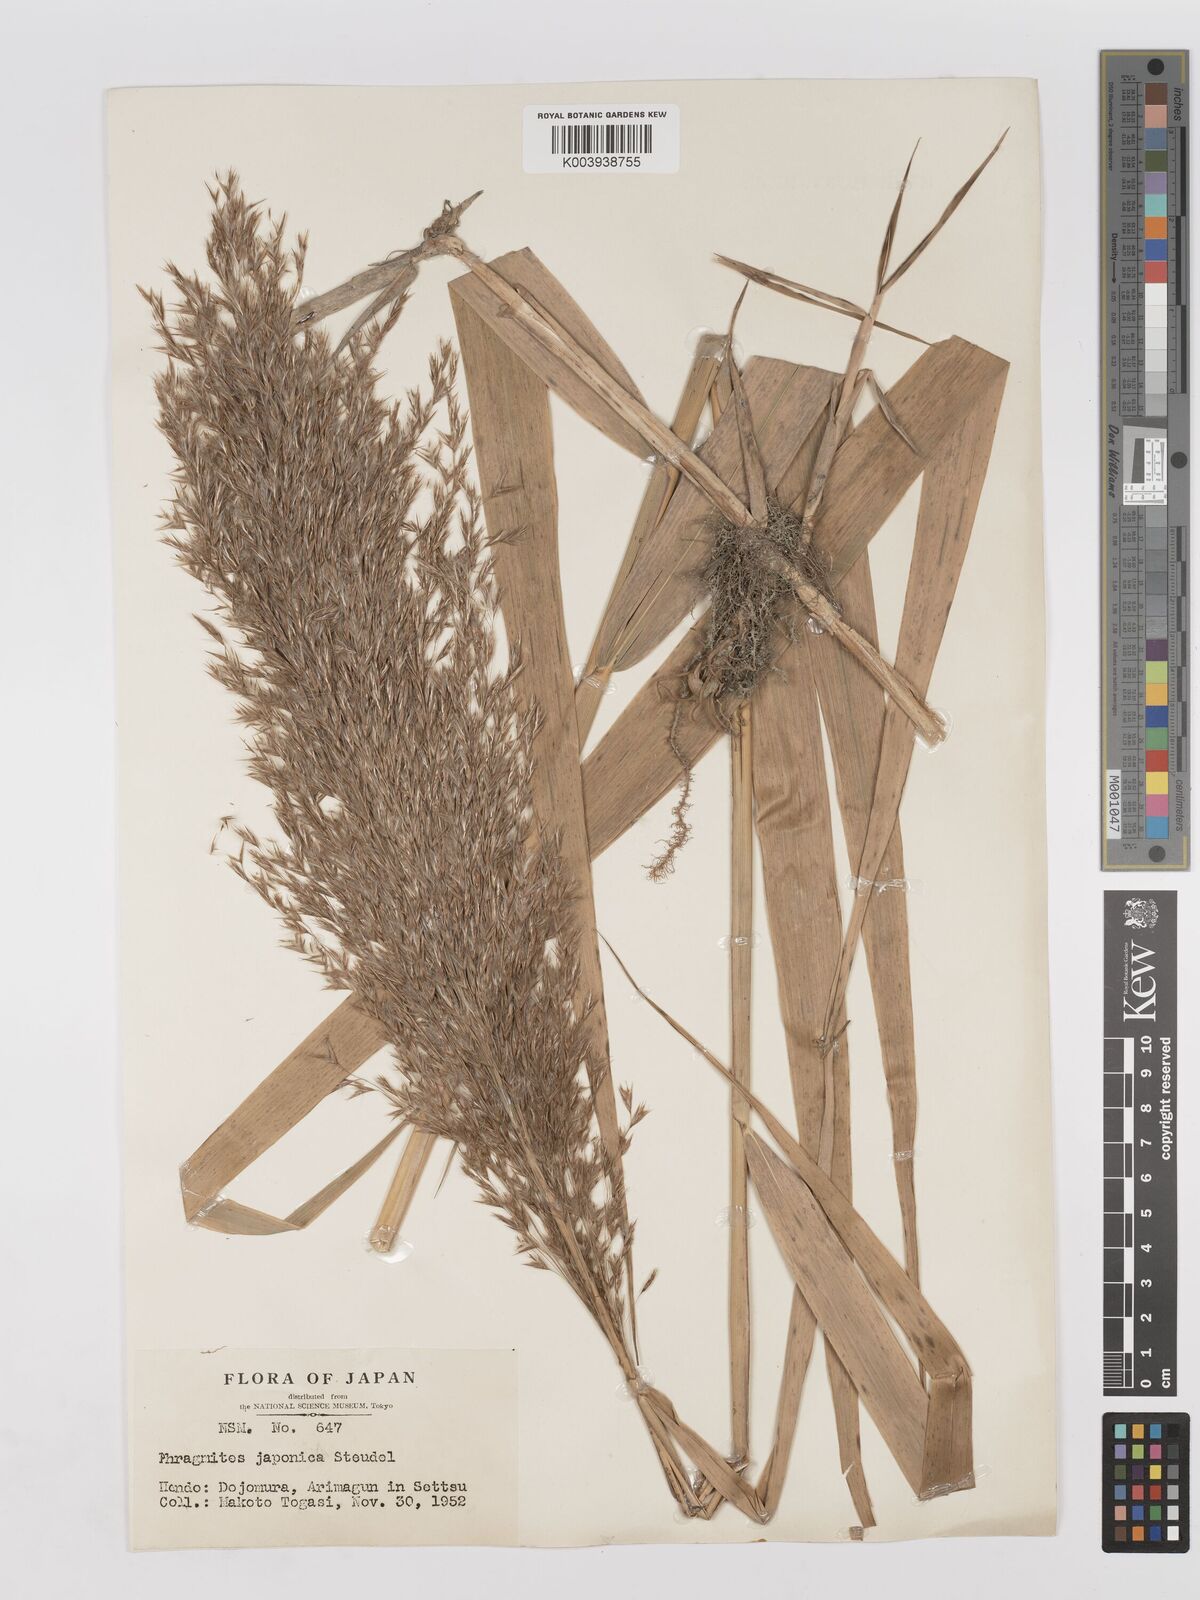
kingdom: Plantae
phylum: Tracheophyta
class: Liliopsida
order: Poales
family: Poaceae
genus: Phragmites
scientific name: Phragmites karka
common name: Tropical reed
